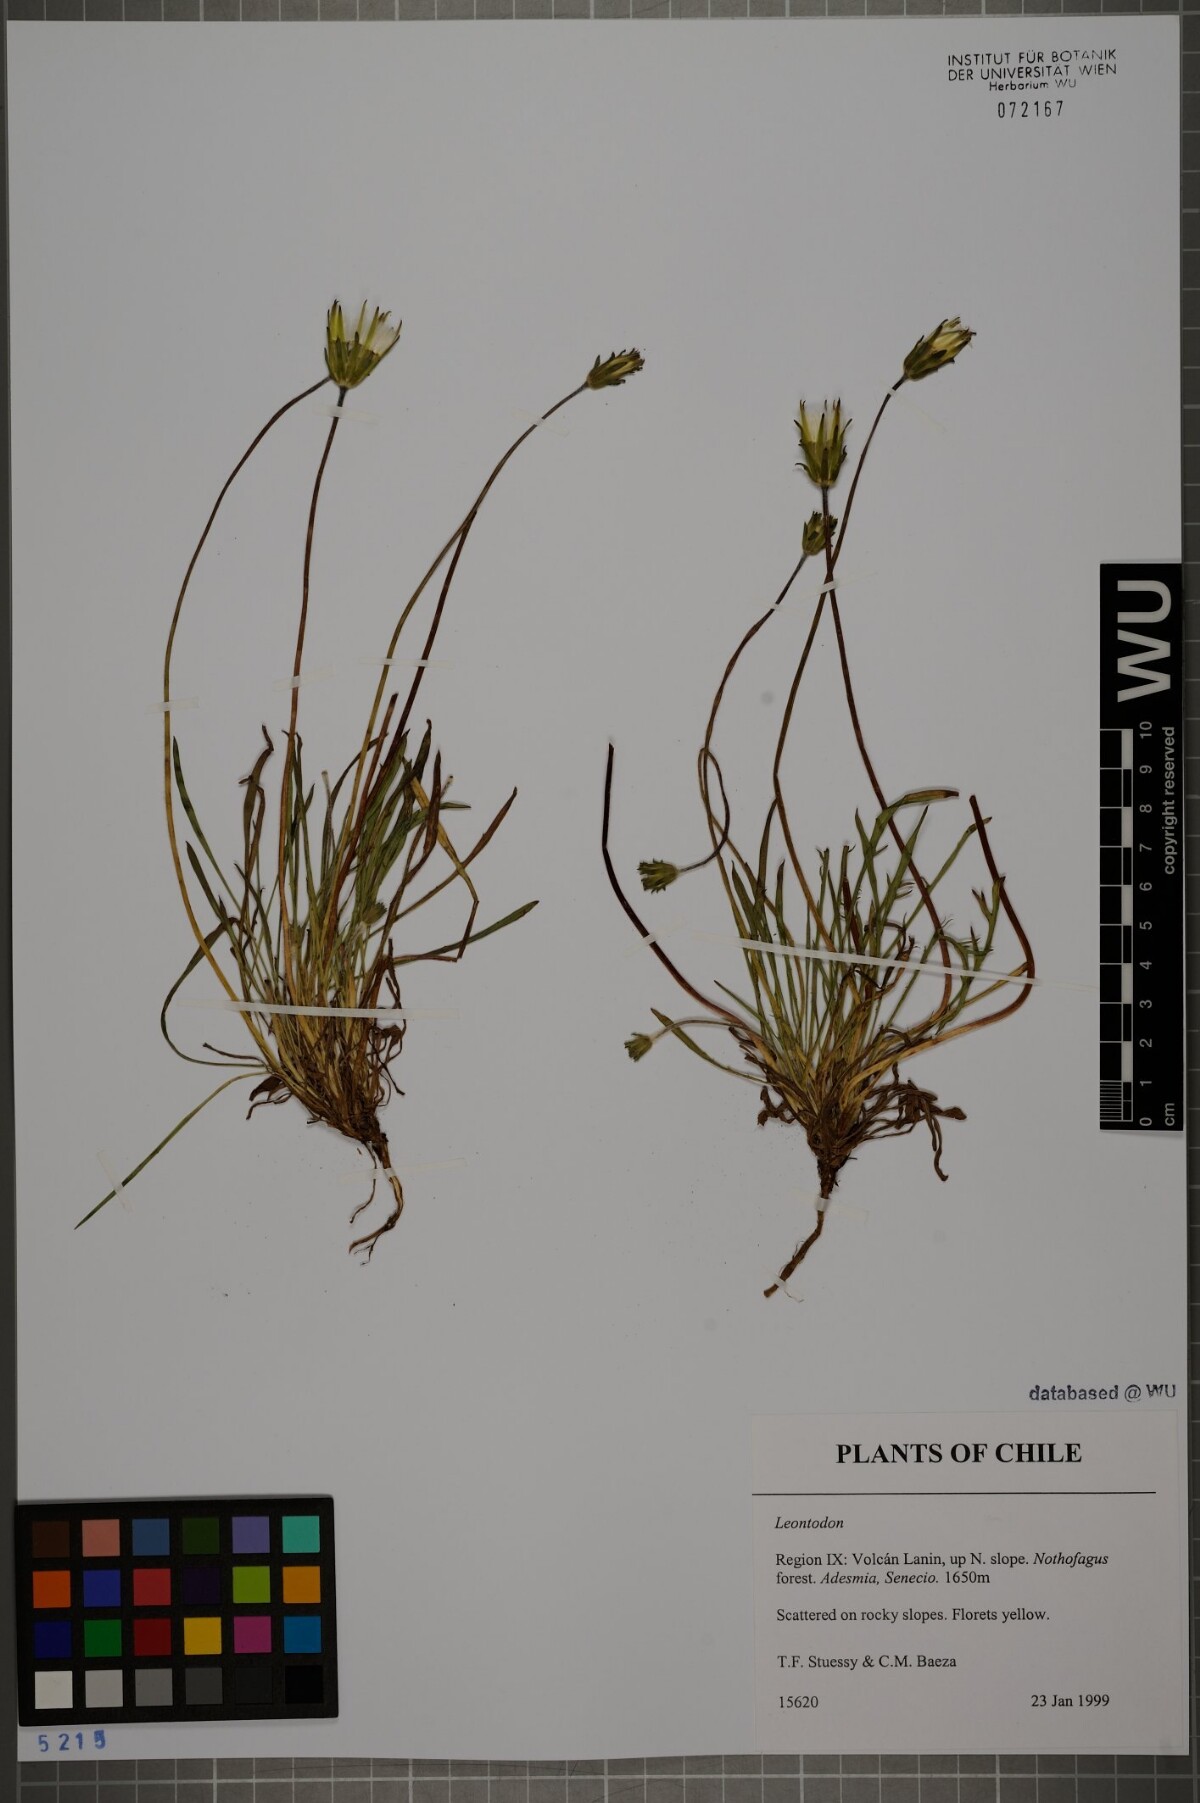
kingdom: Plantae
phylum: Tracheophyta
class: Magnoliopsida
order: Asterales
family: Asteraceae
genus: Leontodon
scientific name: Leontodon
